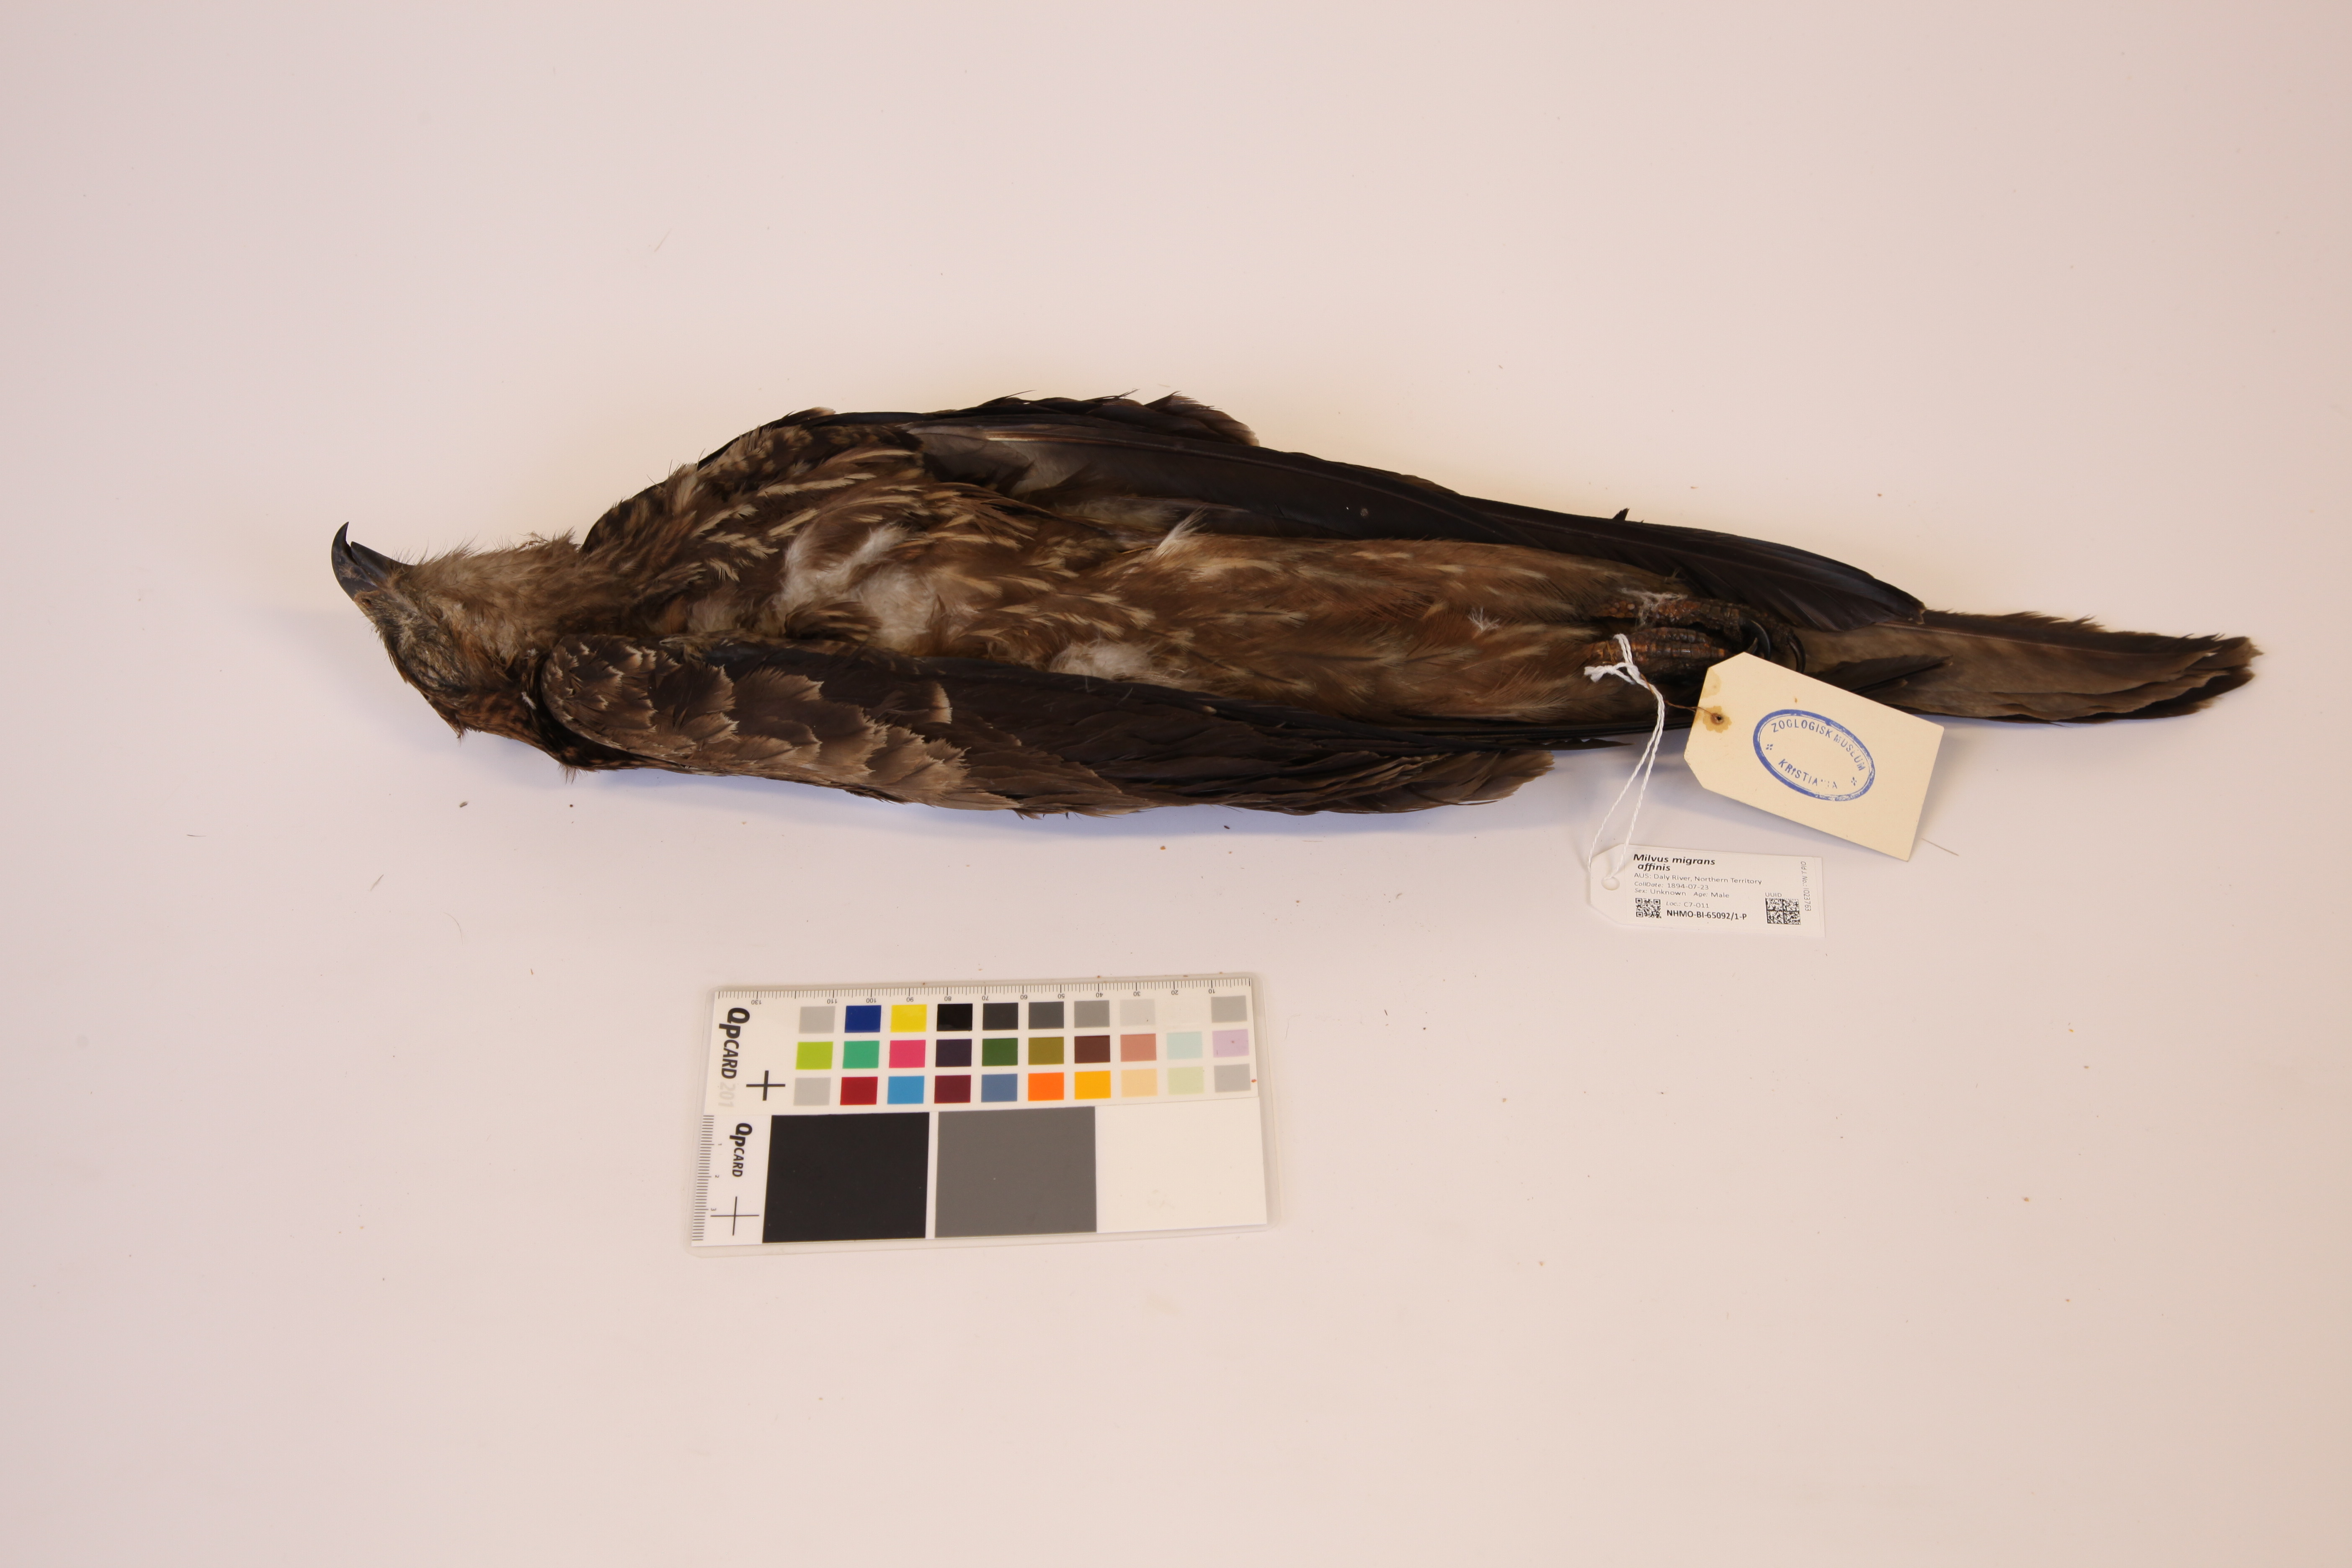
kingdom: Animalia
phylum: Chordata
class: Aves
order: Accipitriformes
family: Accipitridae
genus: Milvus
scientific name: Milvus migrans
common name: Black kite
